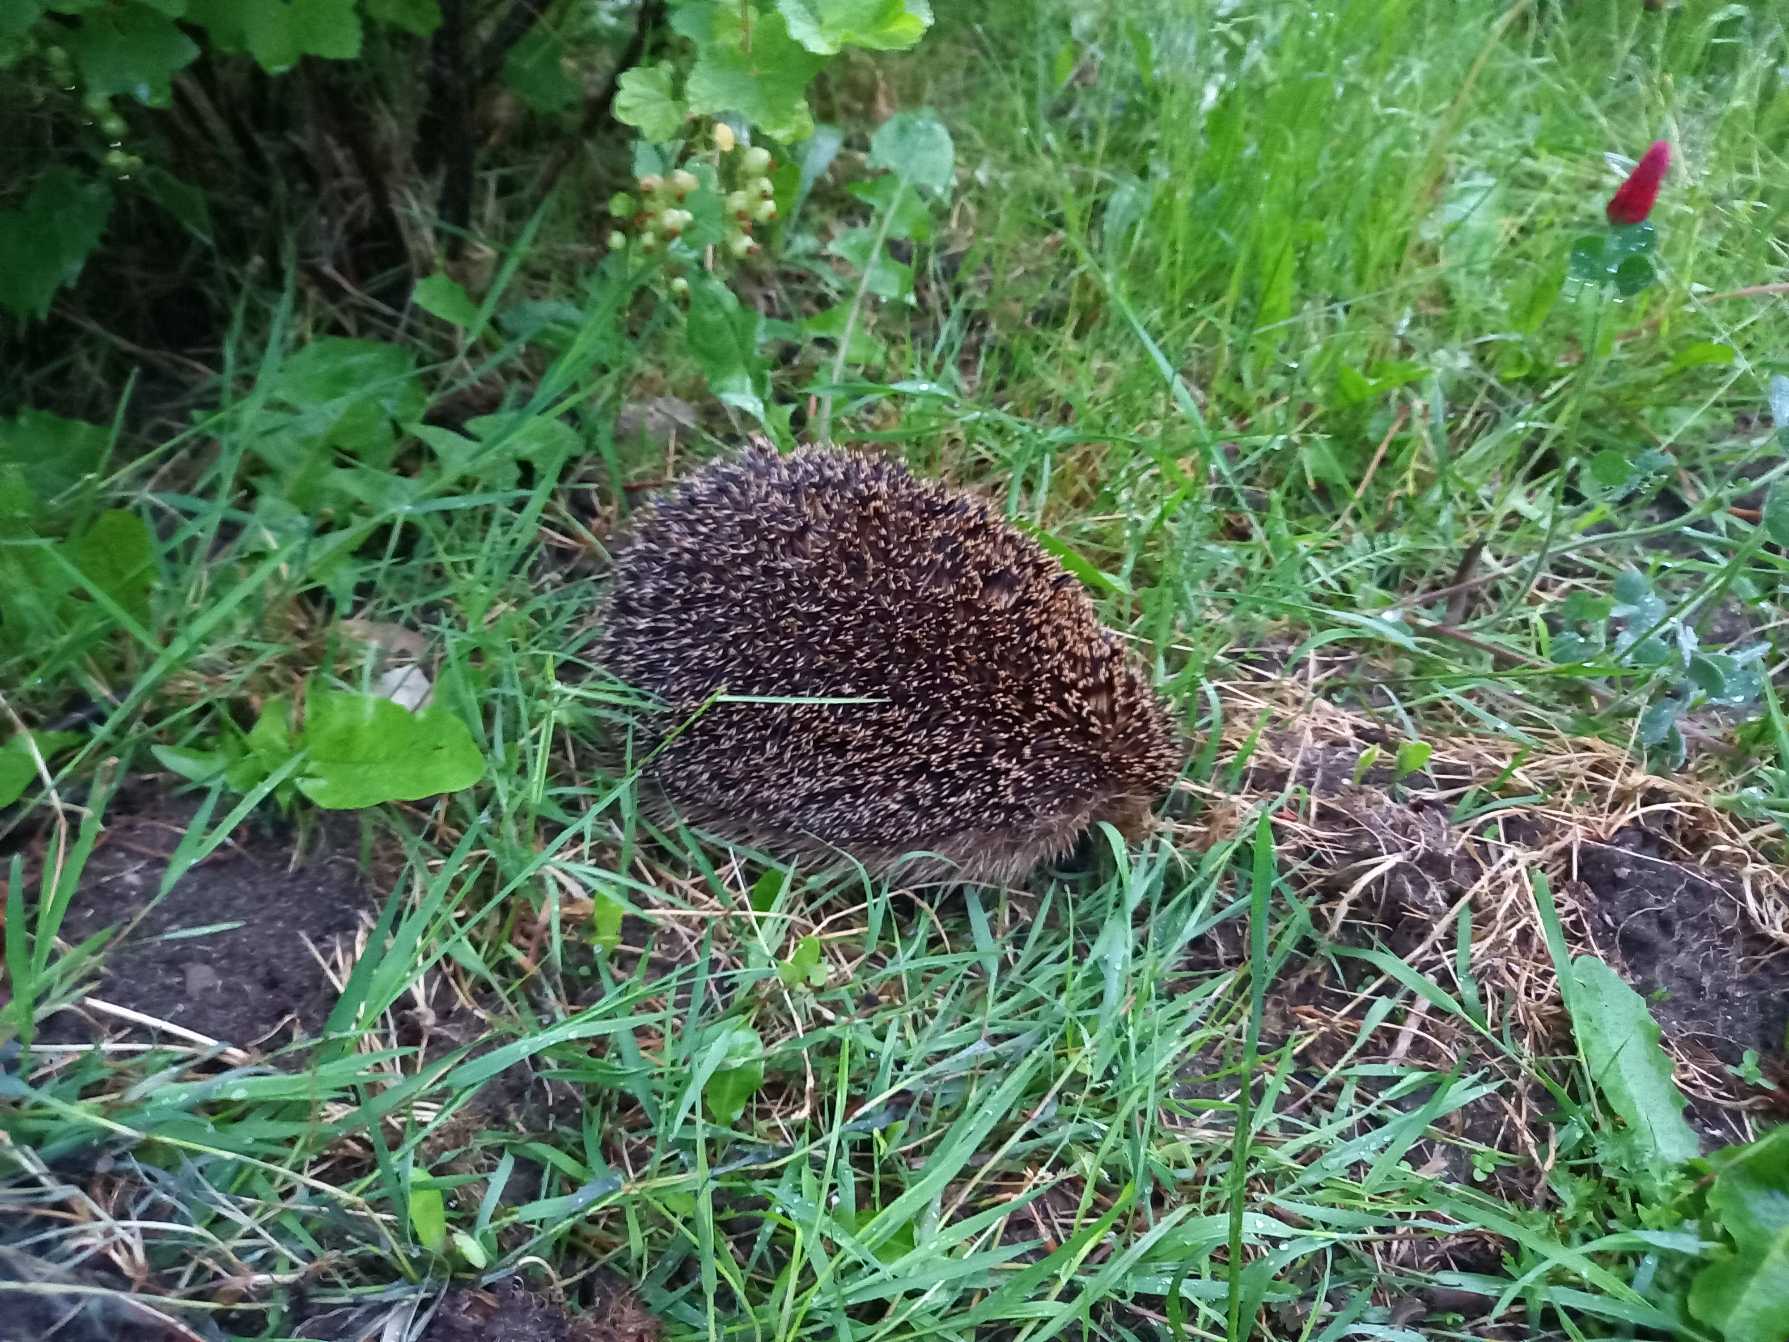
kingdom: Animalia
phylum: Chordata
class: Mammalia
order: Erinaceomorpha
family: Erinaceidae
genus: Erinaceus
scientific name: Erinaceus europaeus
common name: Pindsvin
